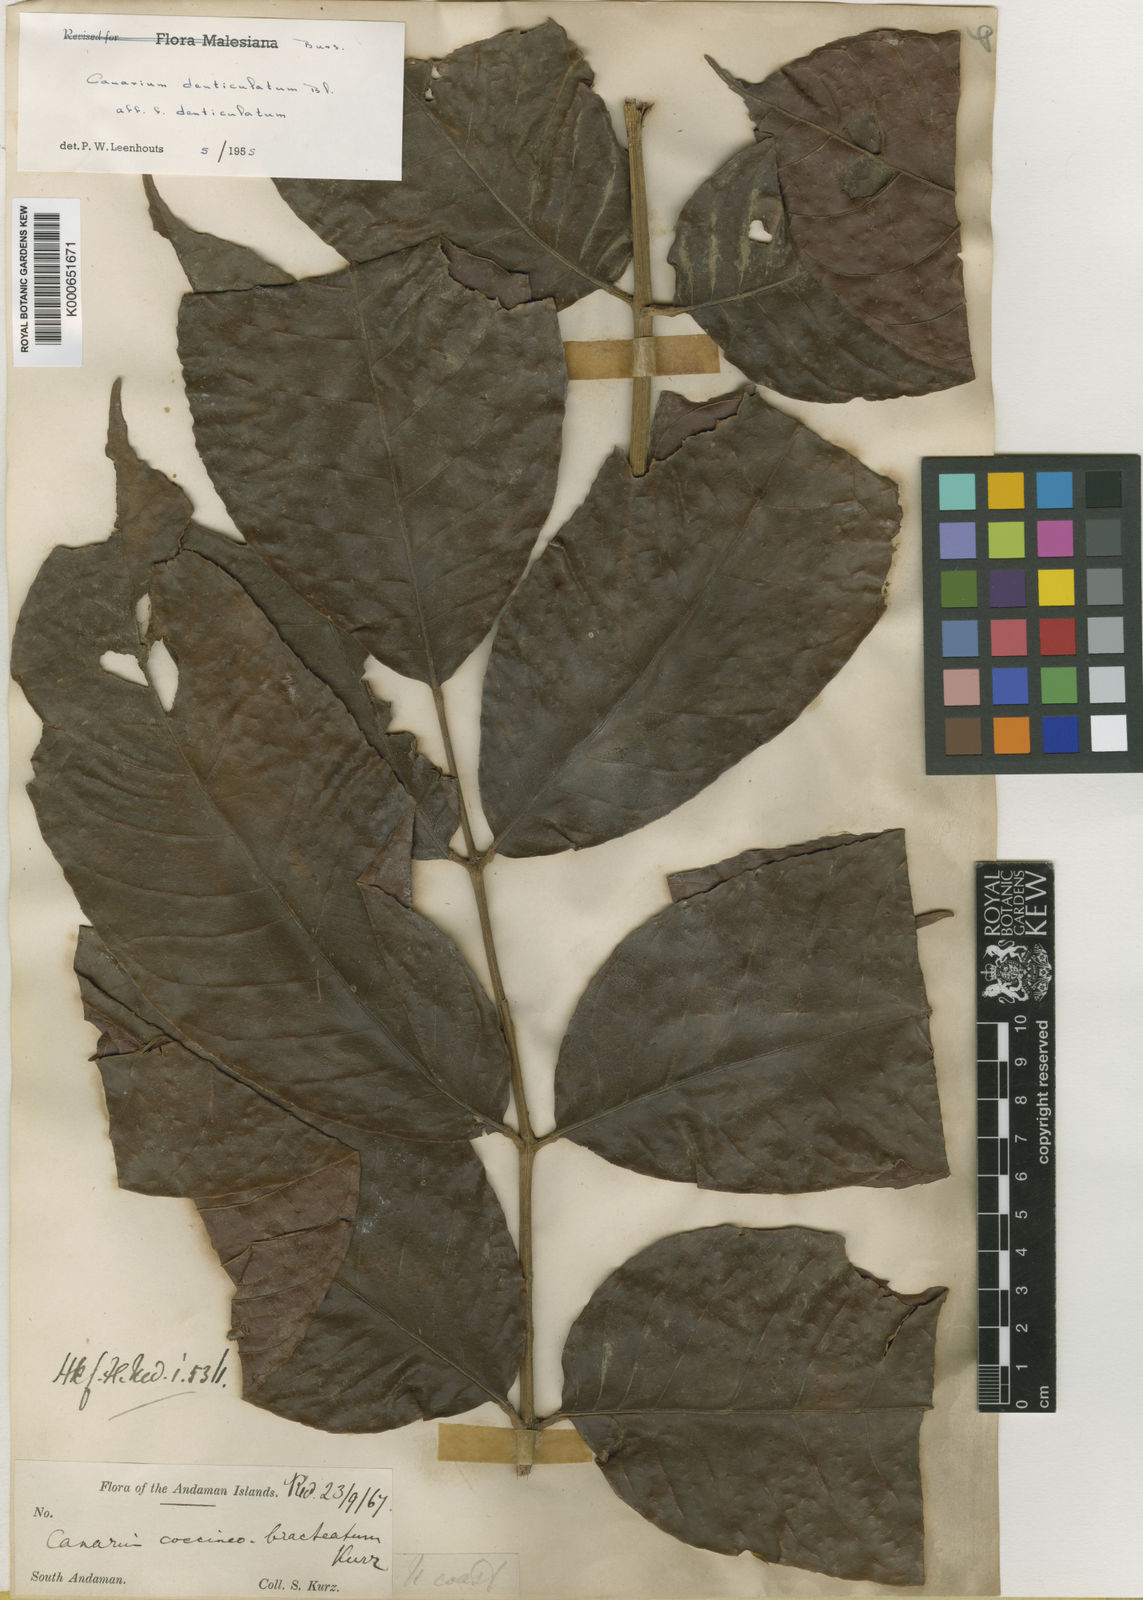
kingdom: Plantae
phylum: Tracheophyta
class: Magnoliopsida
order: Sapindales
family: Burseraceae
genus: Canarium
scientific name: Canarium denticulatum
